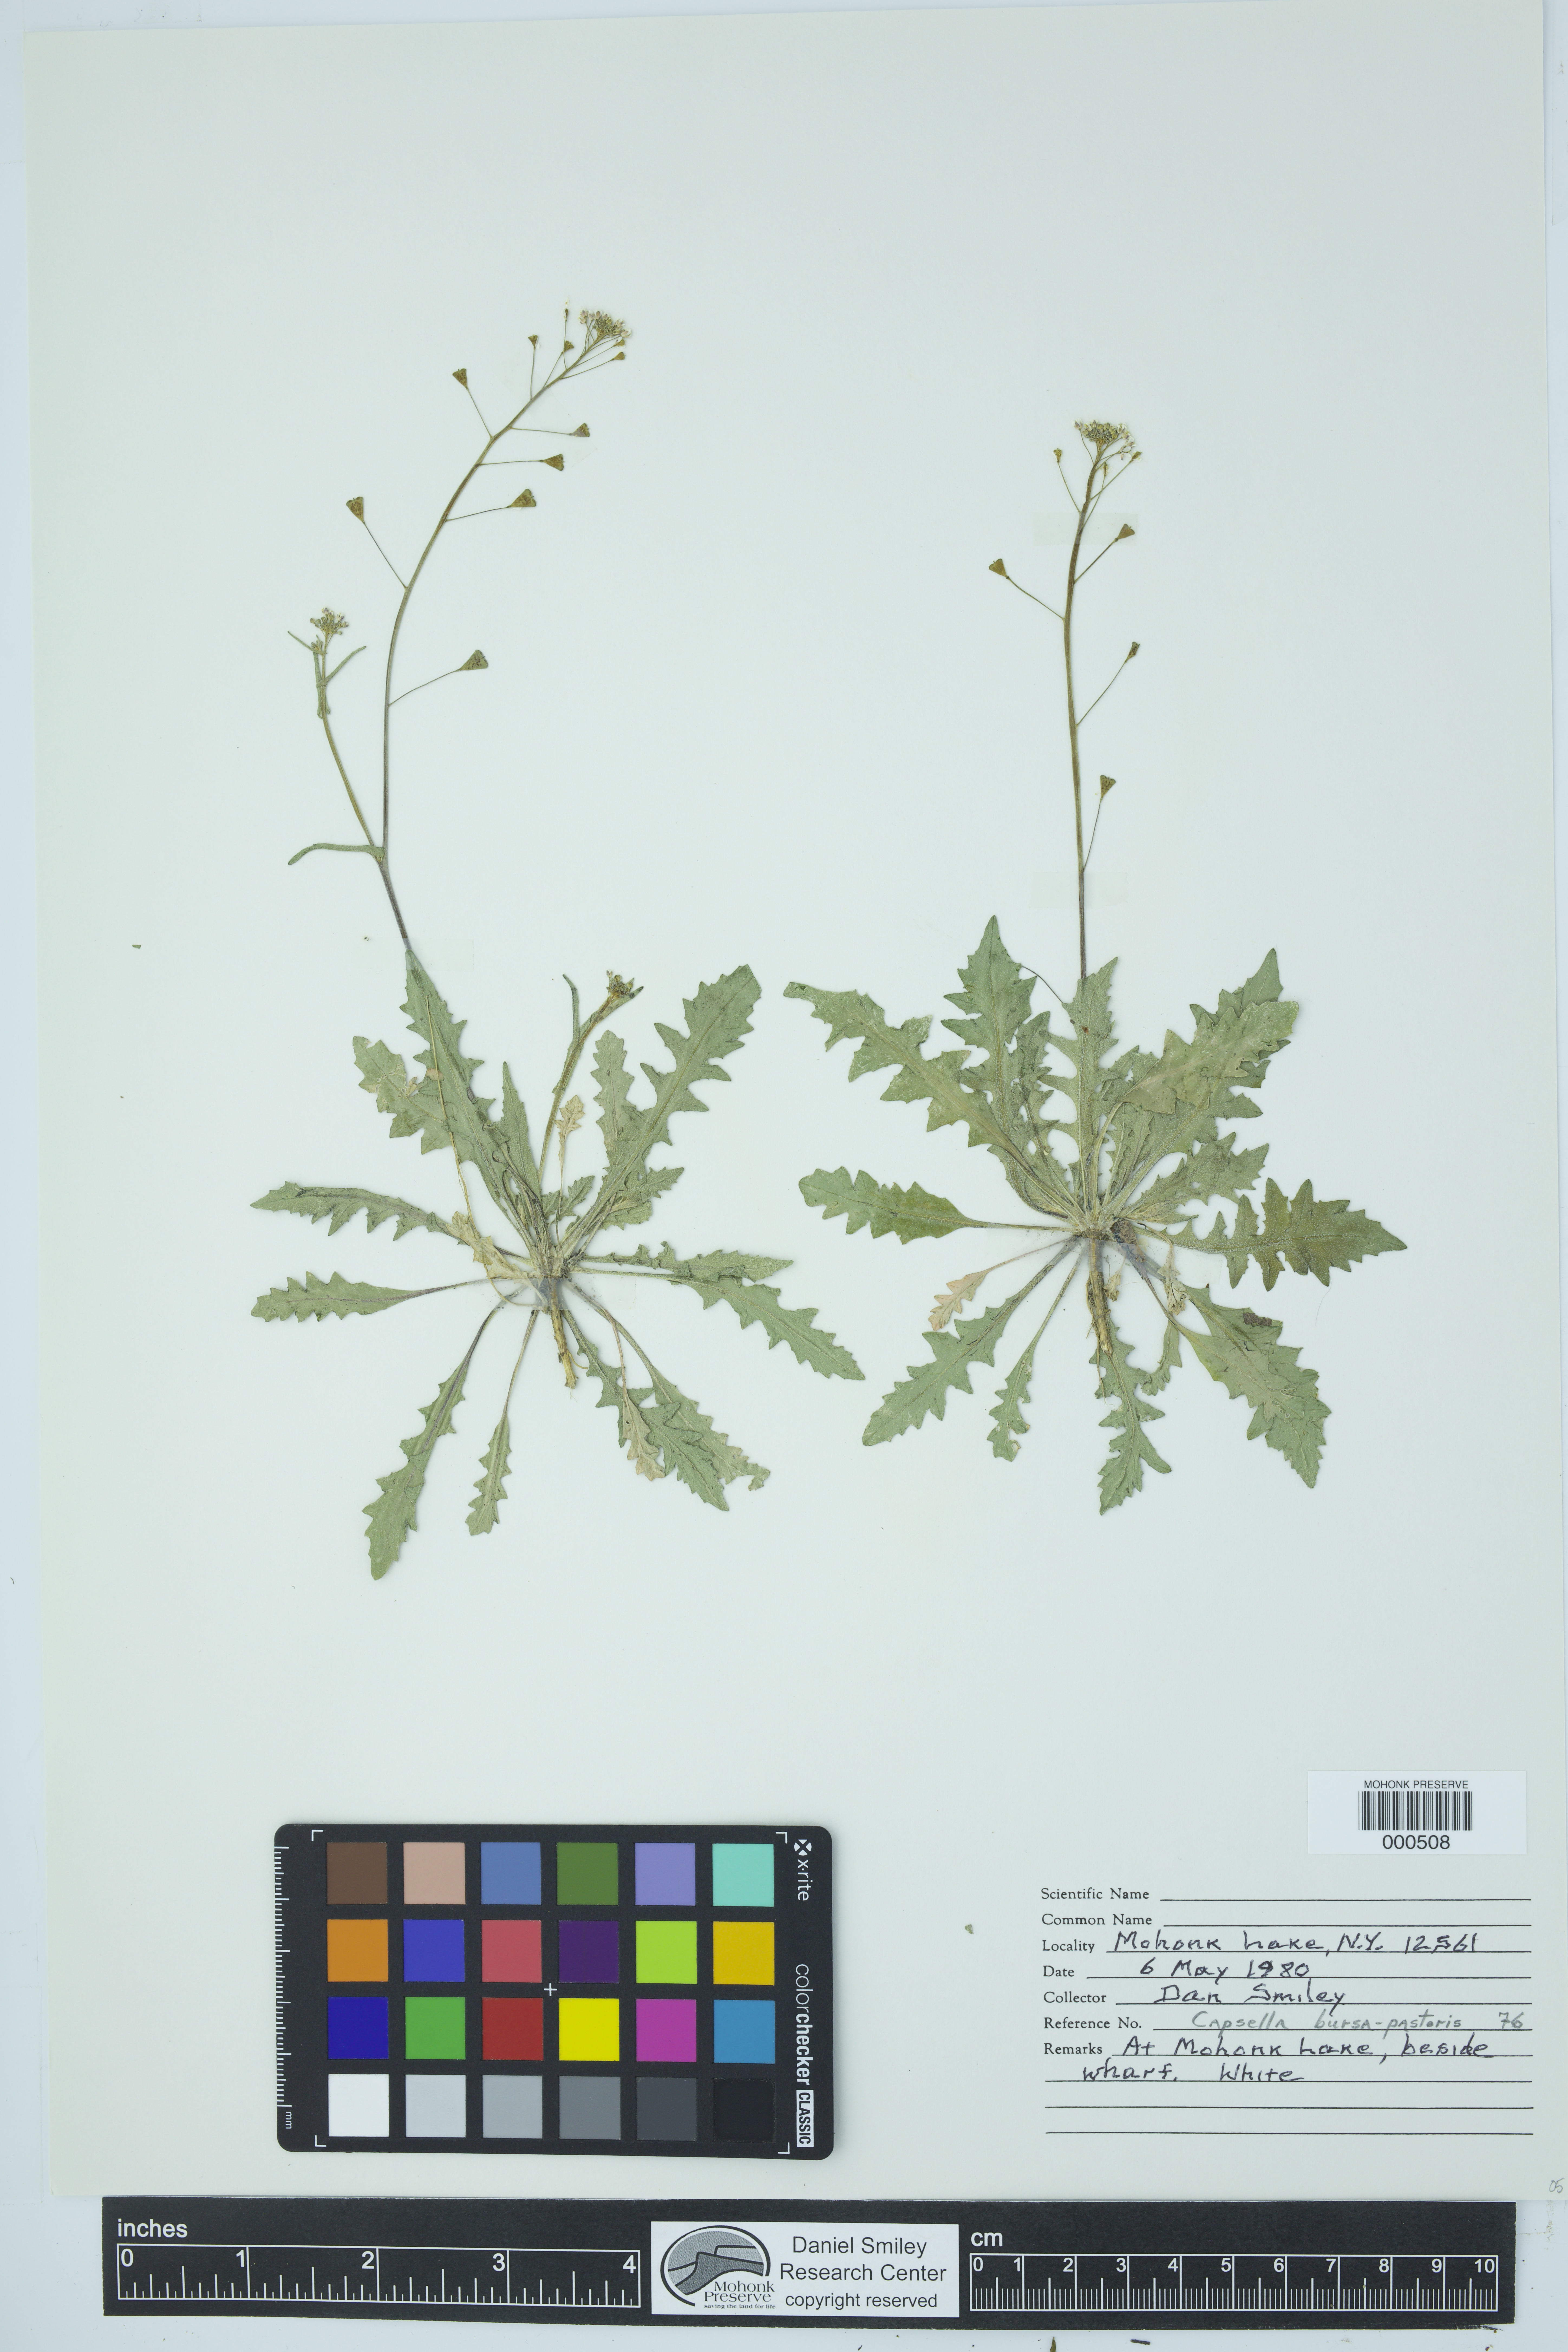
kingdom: Plantae
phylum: Tracheophyta
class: Magnoliopsida
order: Brassicales
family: Brassicaceae
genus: Capsella
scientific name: Capsella bursa-pastoris
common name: Shepherd's purse
